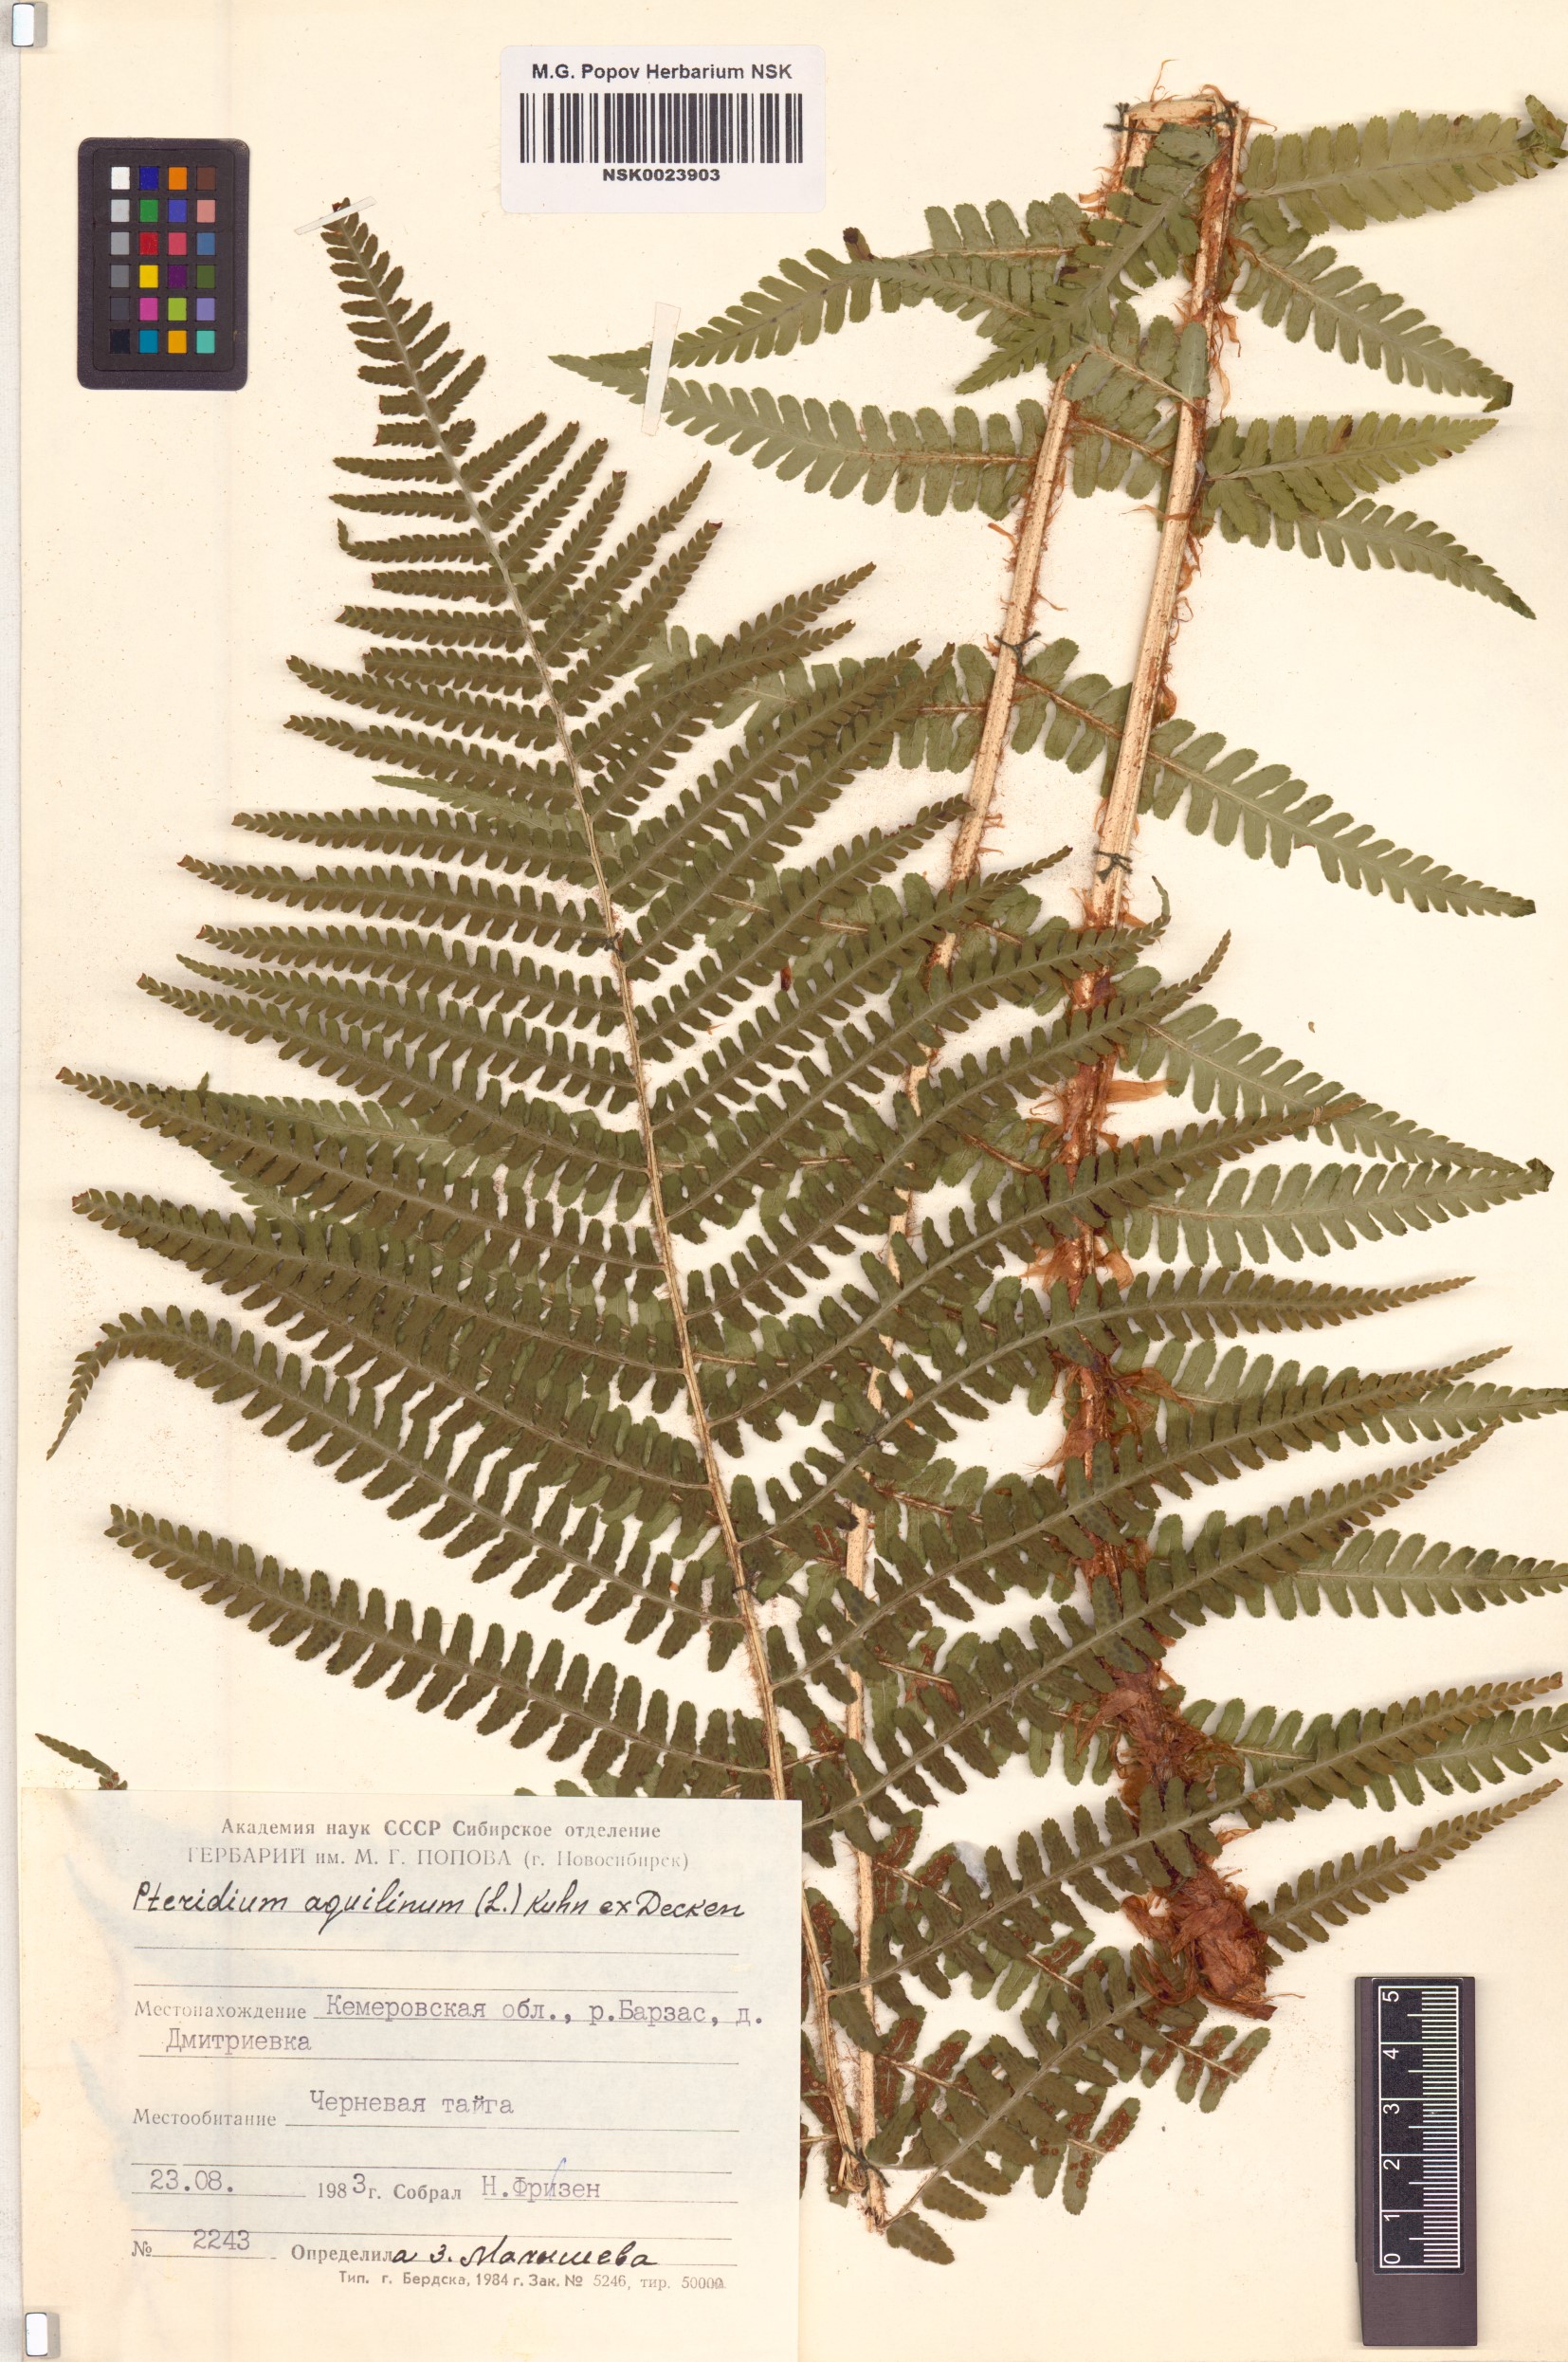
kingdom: Plantae
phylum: Tracheophyta
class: Polypodiopsida
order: Polypodiales
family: Dennstaedtiaceae
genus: Pteridium
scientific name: Pteridium aquilinum
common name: Bracken
